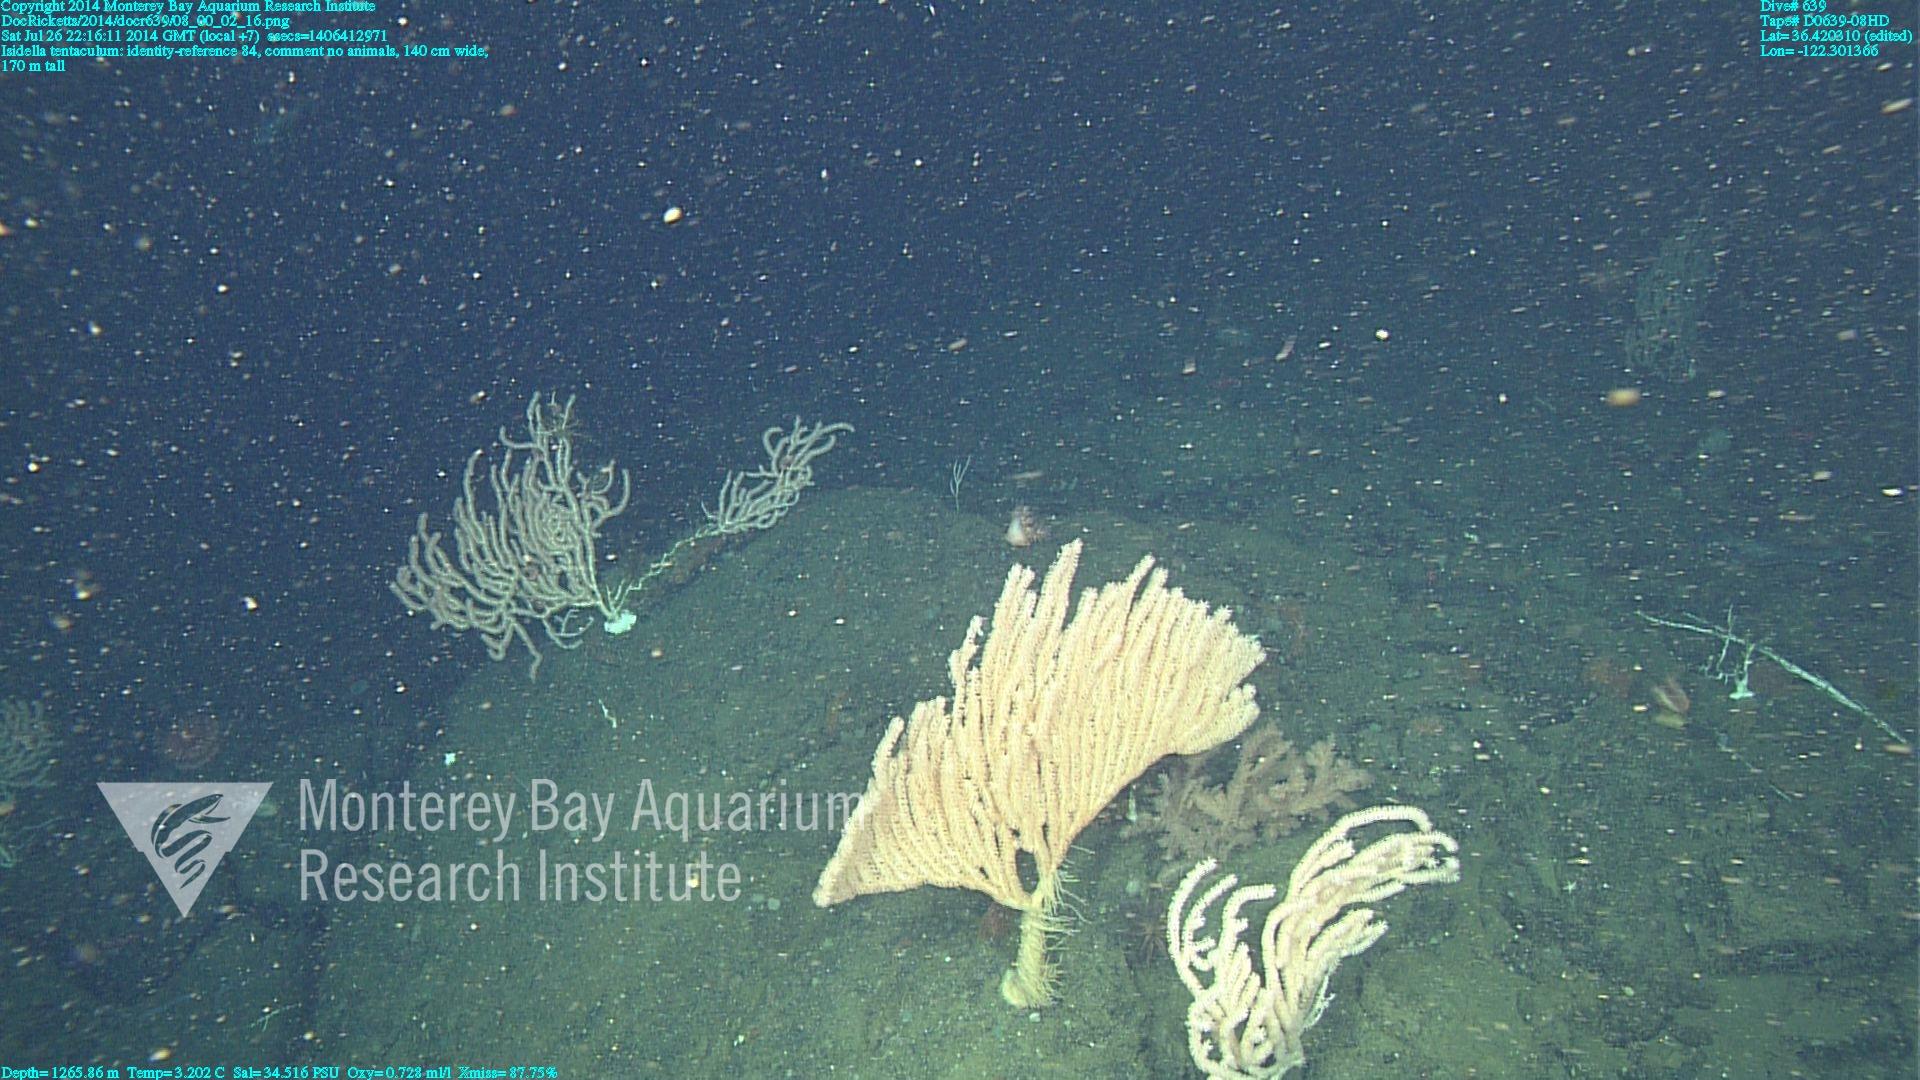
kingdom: Animalia
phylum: Cnidaria
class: Anthozoa
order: Scleralcyonacea
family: Keratoisididae
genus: Isidella
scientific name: Isidella tentaculum
